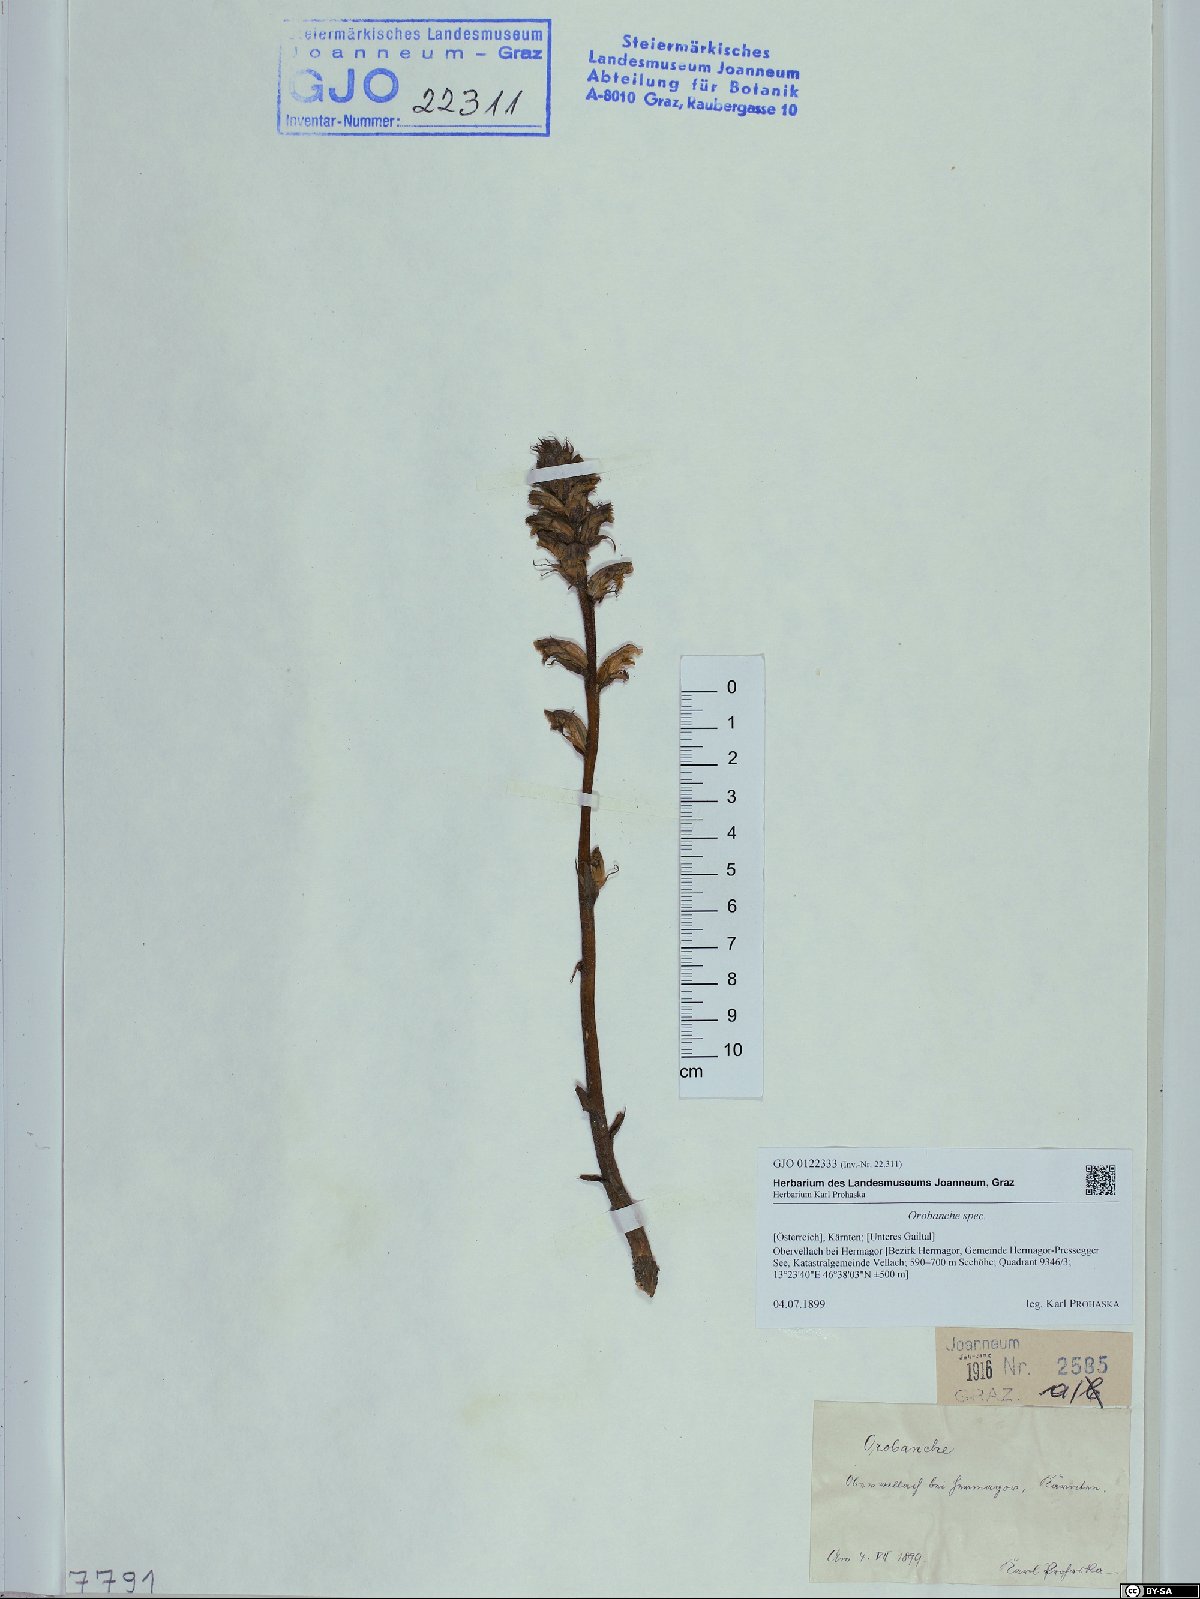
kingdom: Plantae
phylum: Tracheophyta
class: Magnoliopsida
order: Lamiales
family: Orobanchaceae
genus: Orobanche
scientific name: Orobanche
